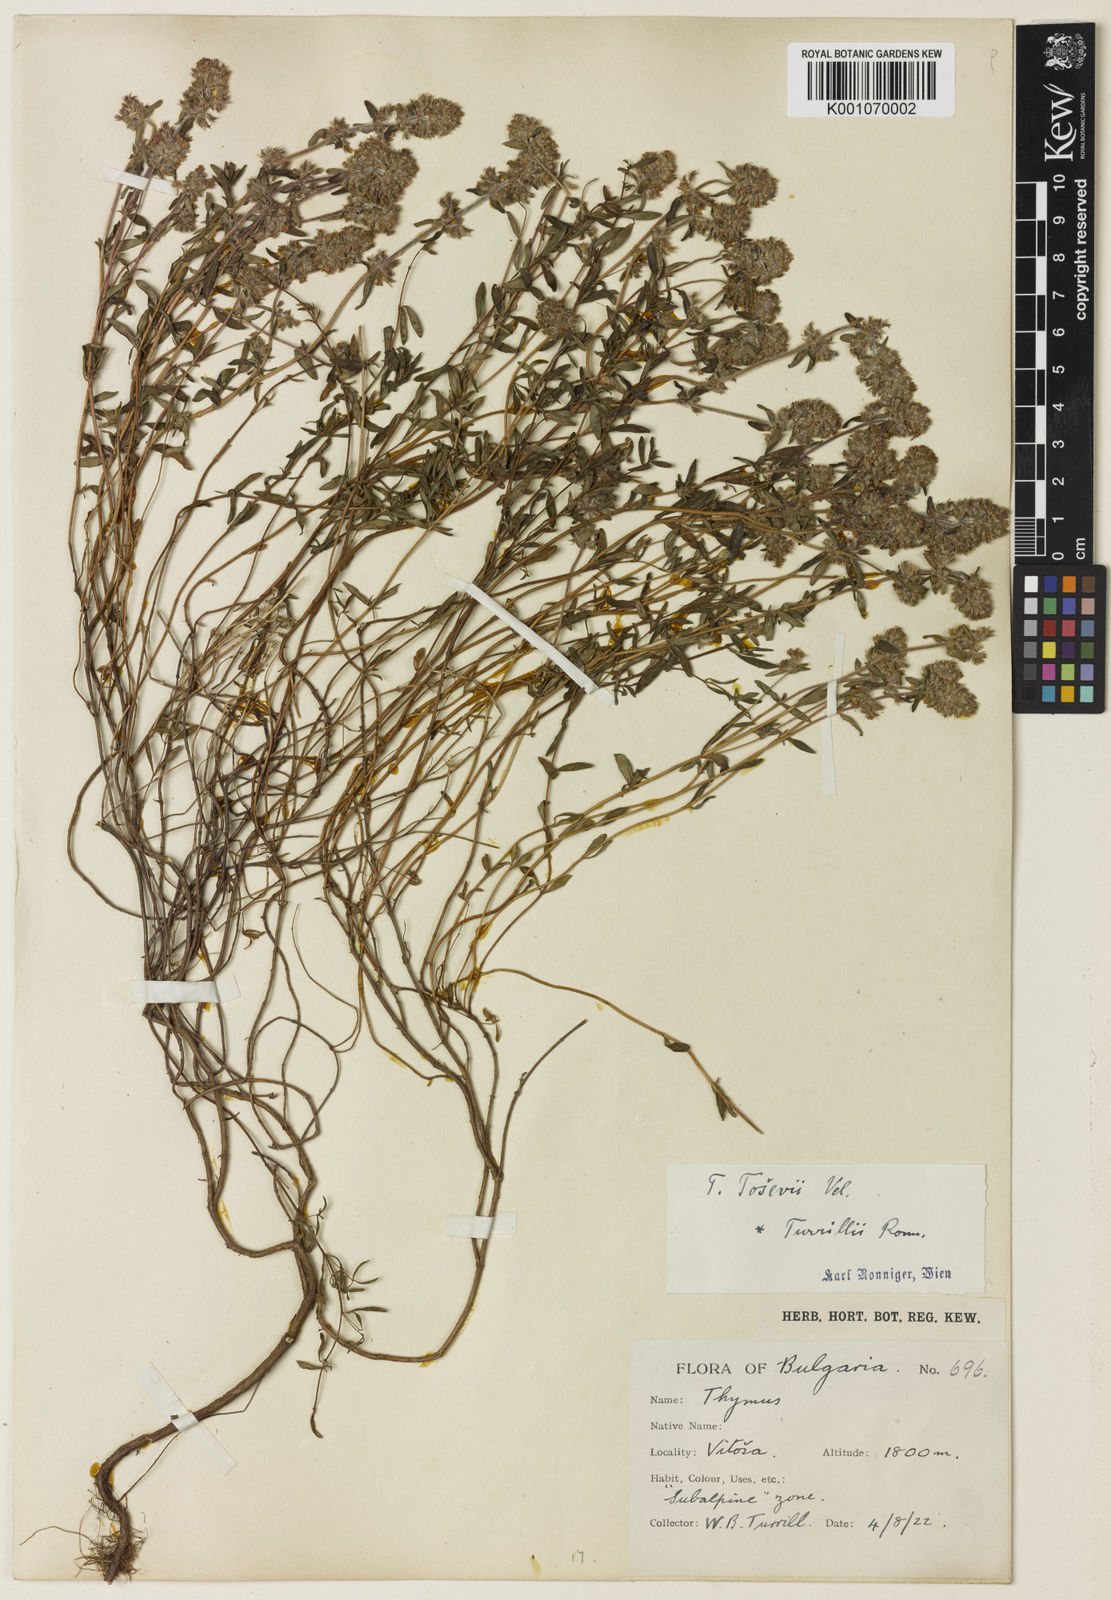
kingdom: Plantae
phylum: Tracheophyta
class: Magnoliopsida
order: Lamiales
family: Lamiaceae
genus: Thymus
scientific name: Thymus sibthorpii
